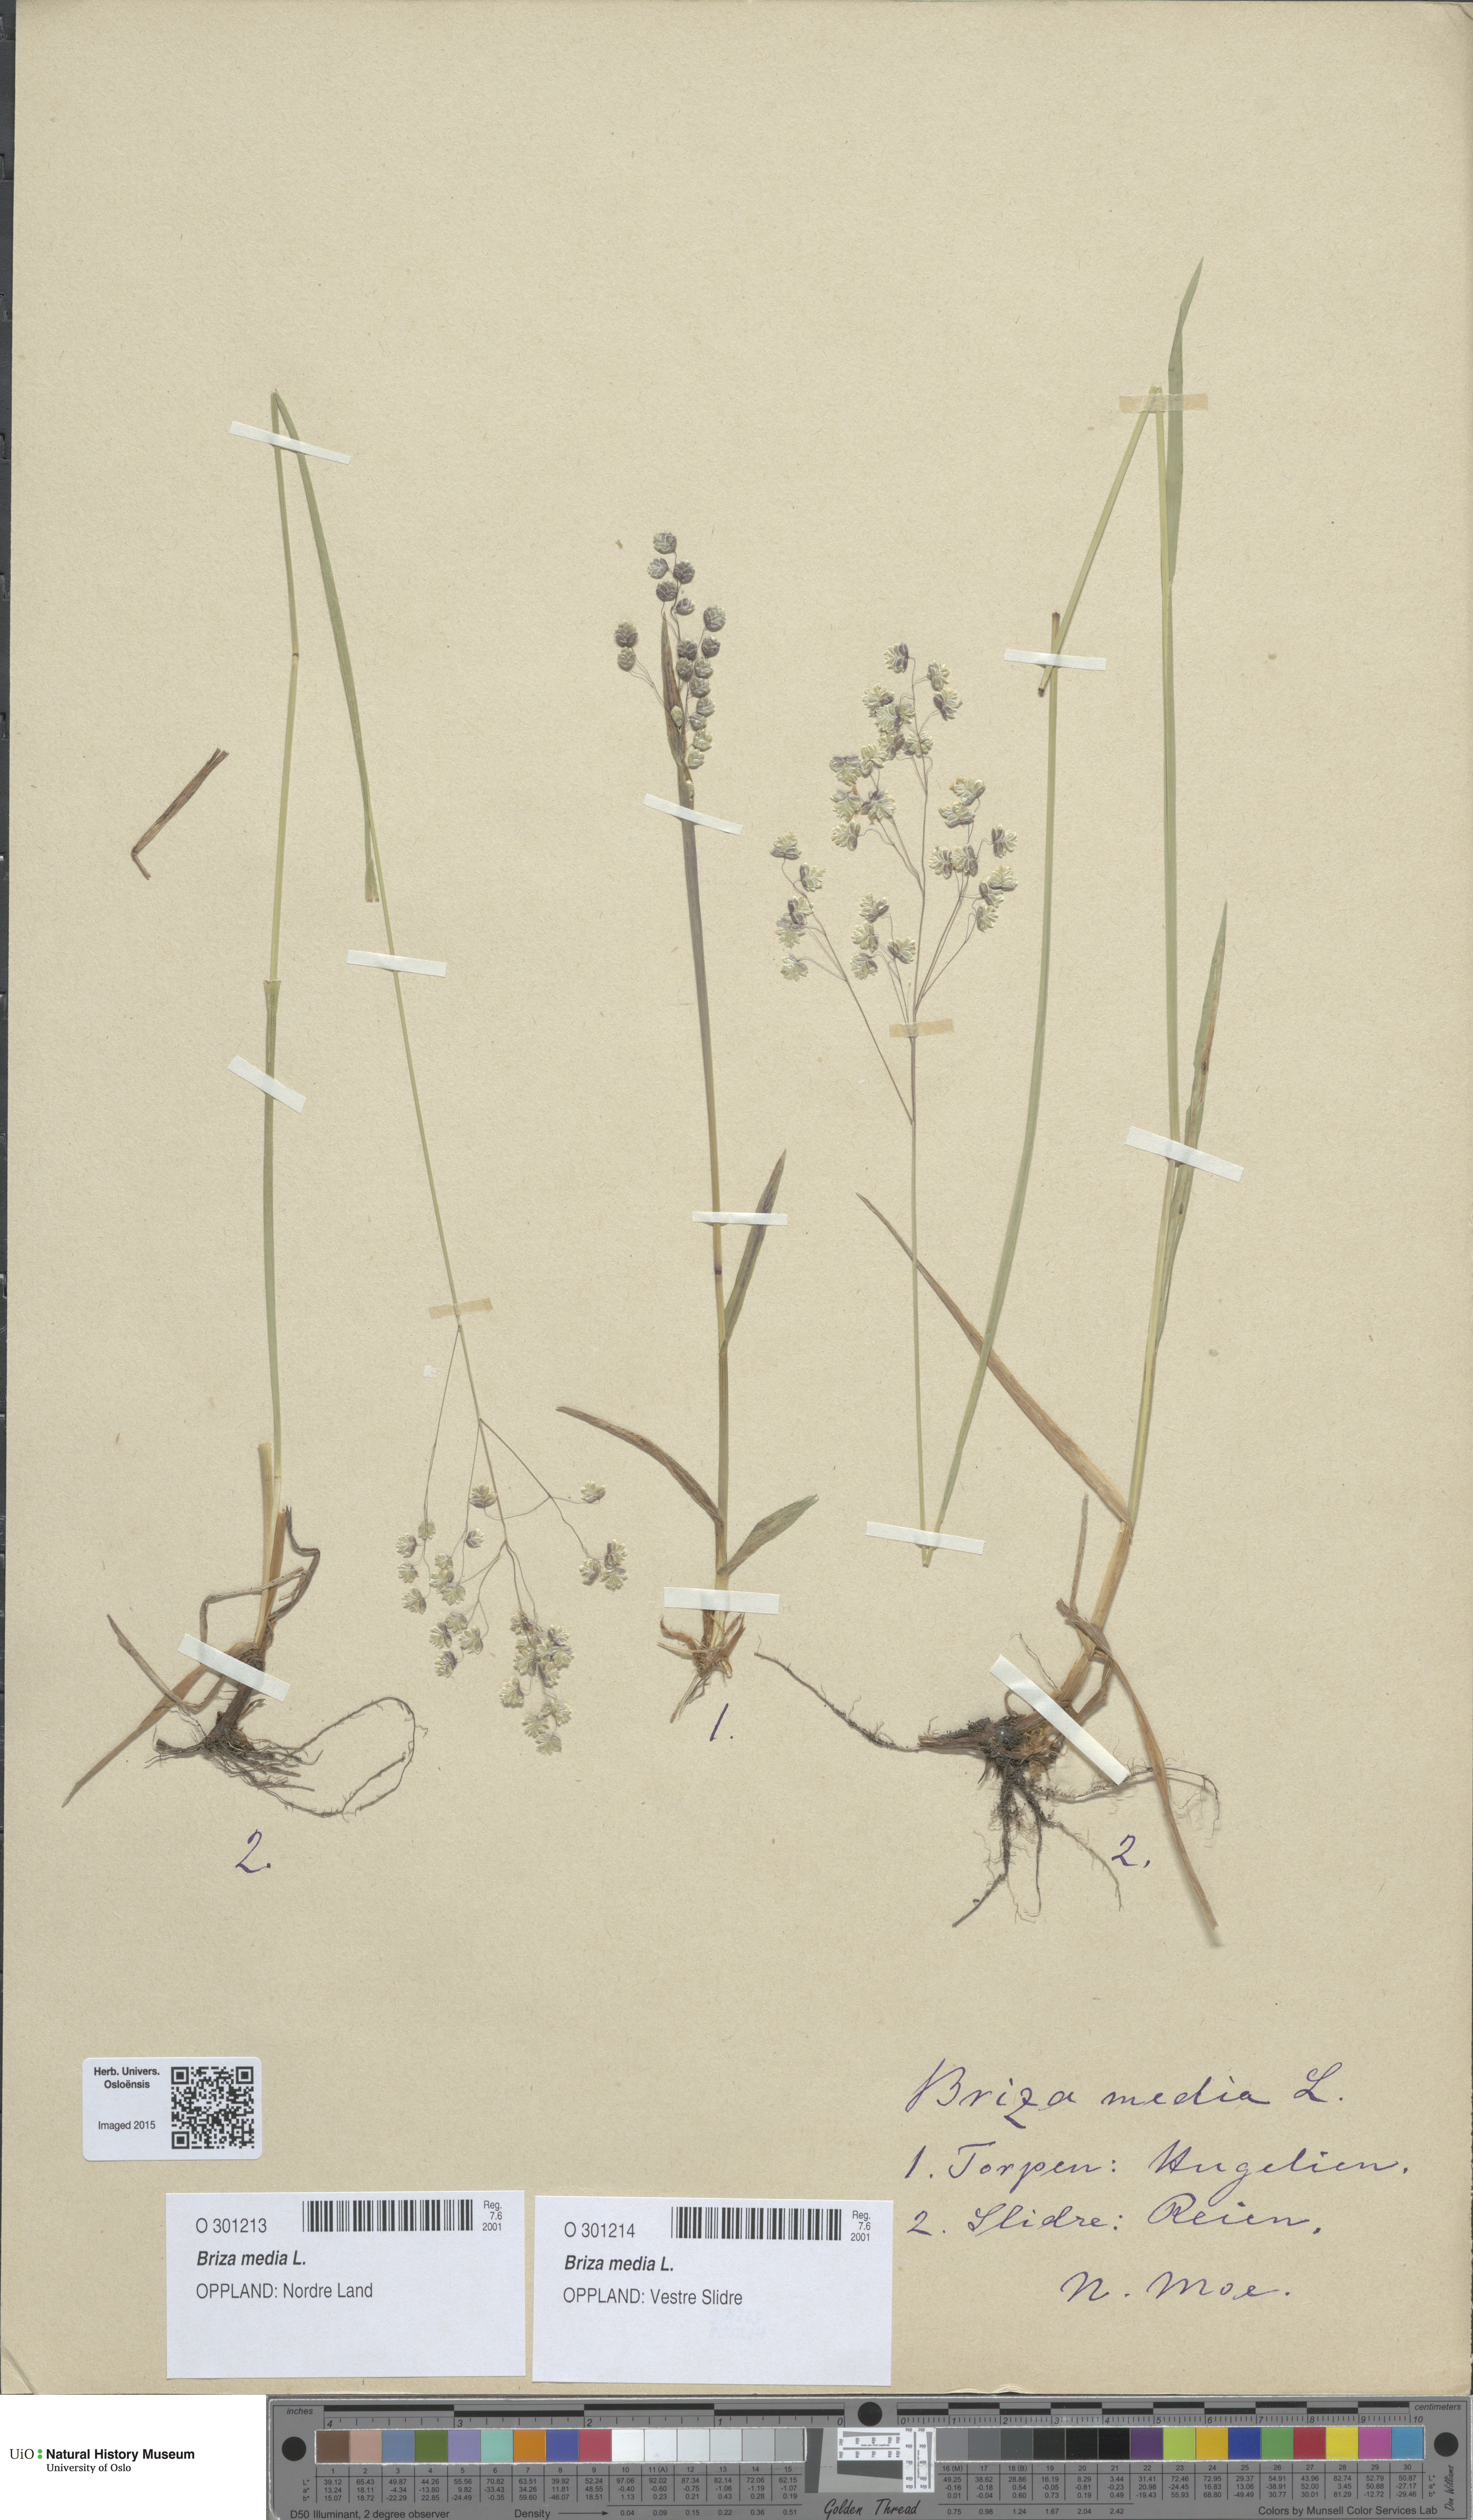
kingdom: Plantae
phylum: Tracheophyta
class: Liliopsida
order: Poales
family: Poaceae
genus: Briza
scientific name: Briza media
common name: Quaking grass
